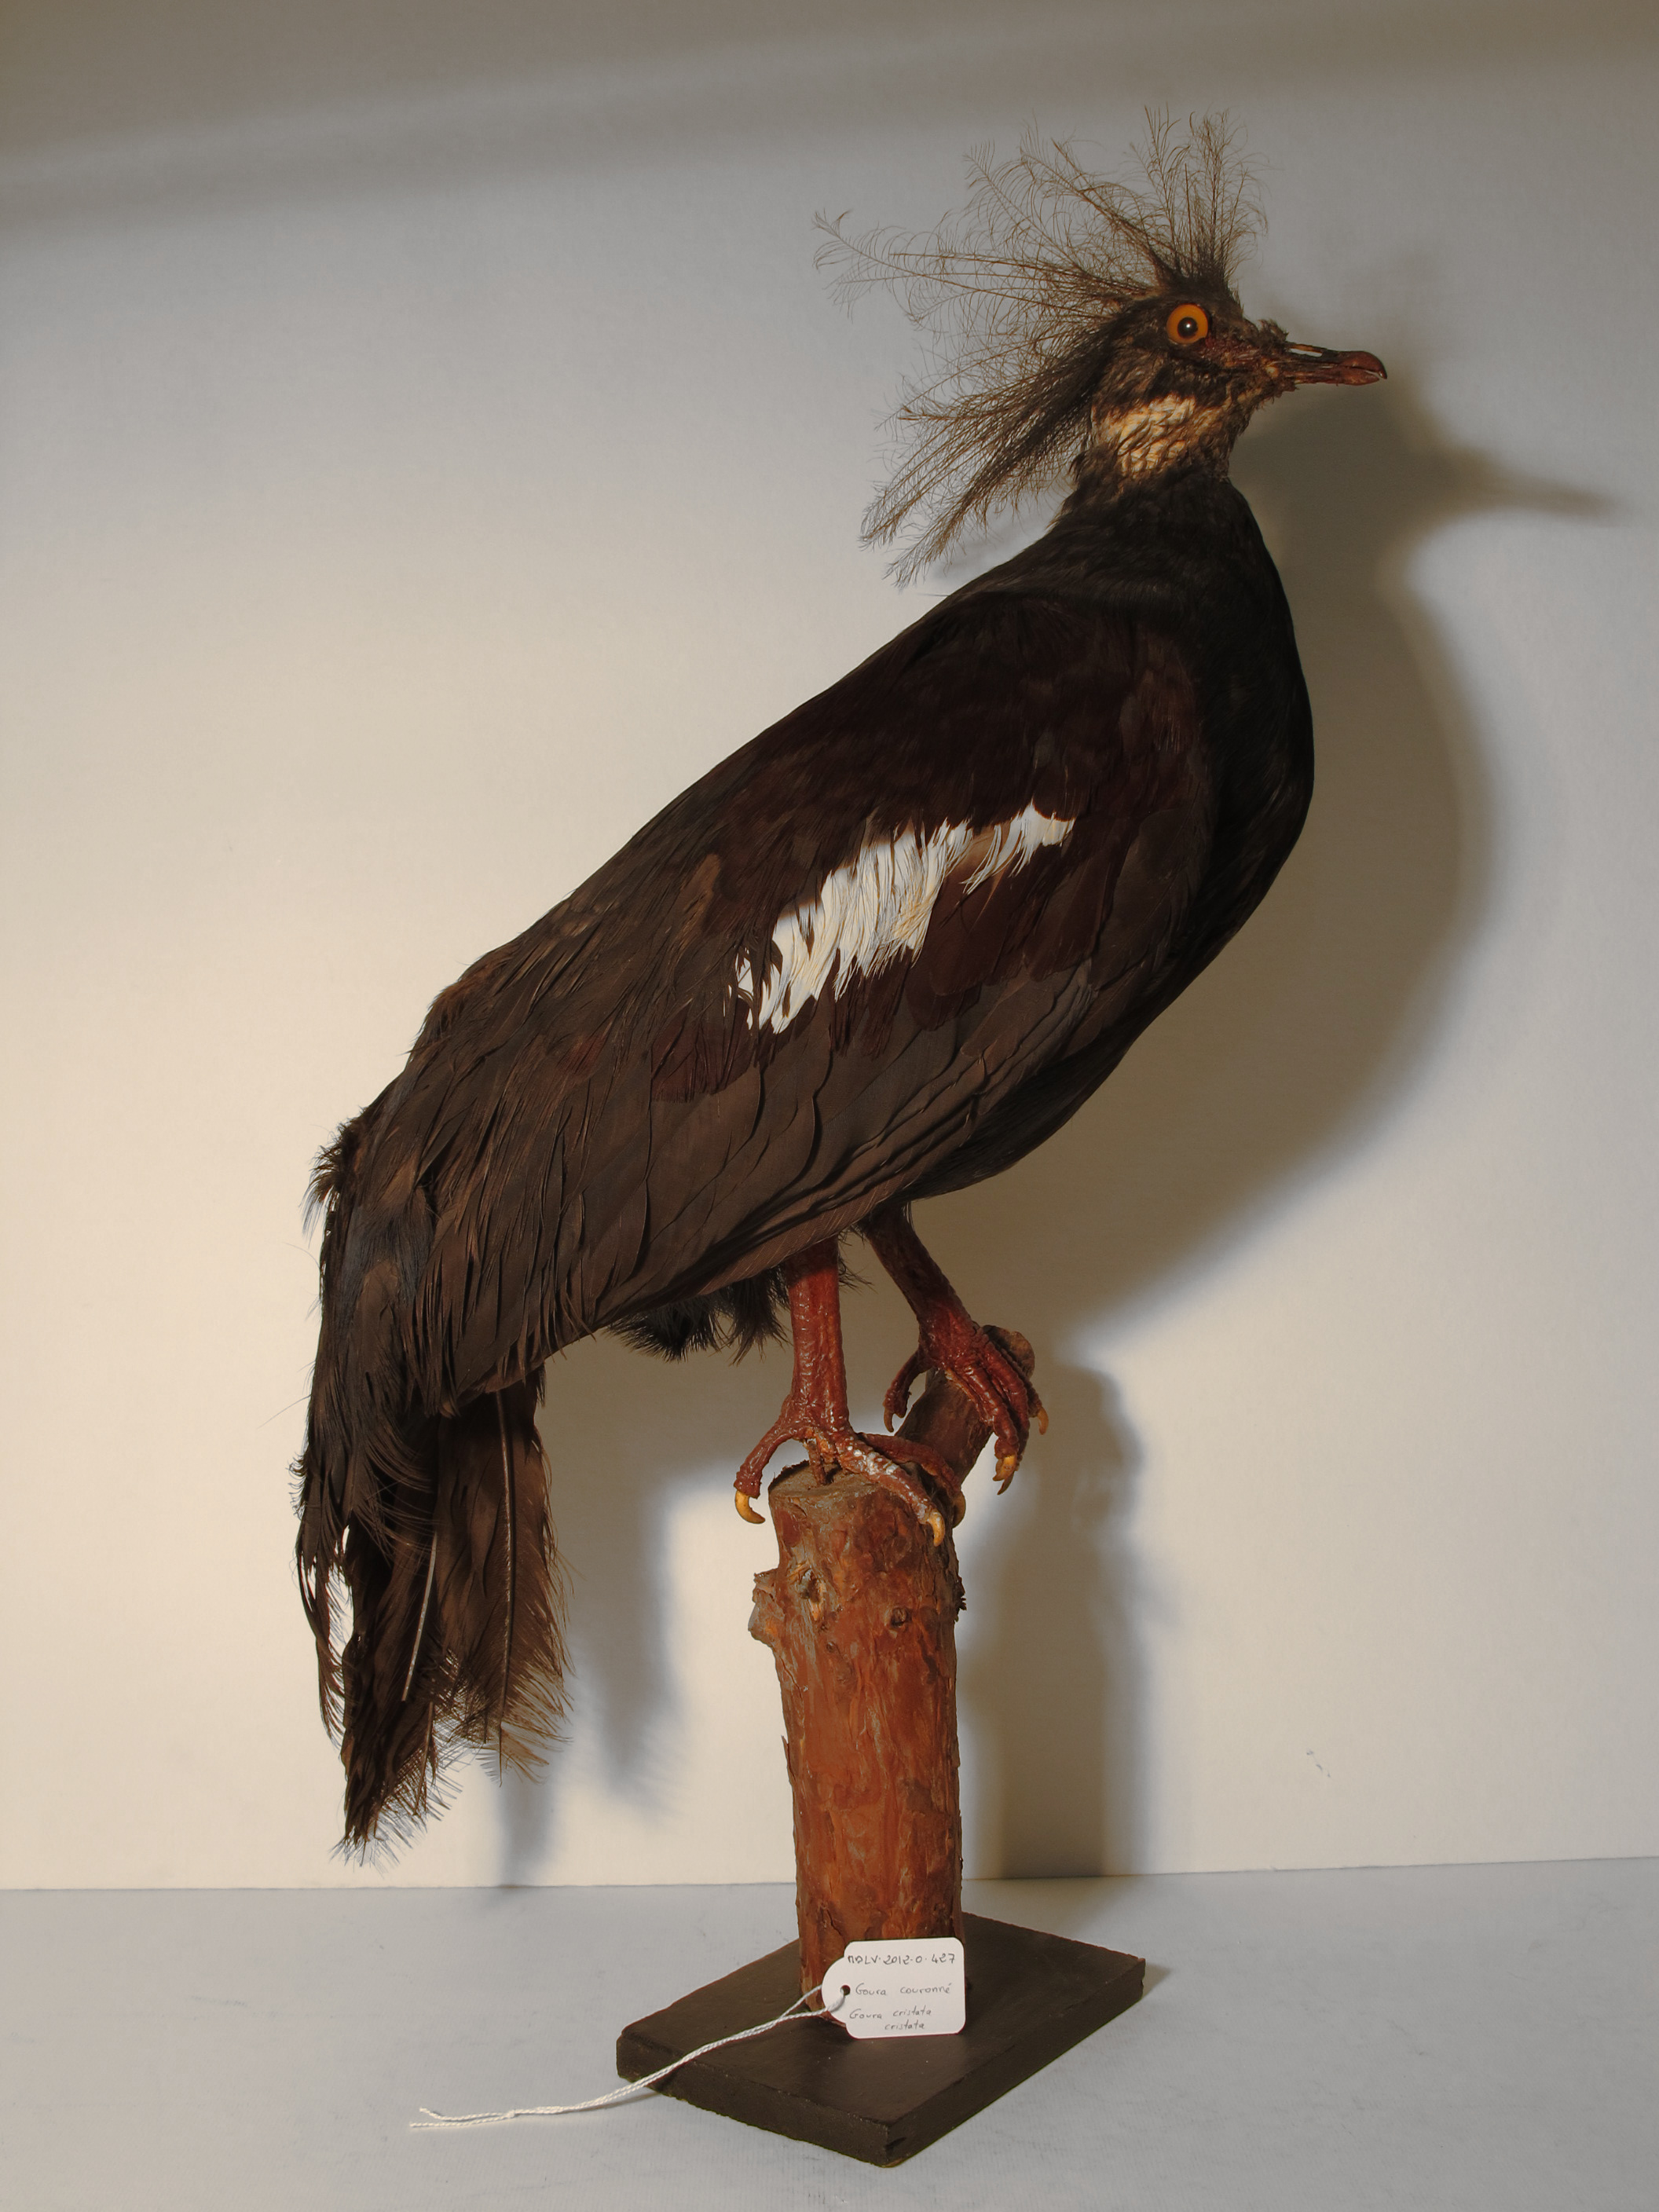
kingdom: Animalia
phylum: Chordata
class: Aves
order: Columbiformes
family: Columbidae
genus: Goura
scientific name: Goura cristata
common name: Western Crowned-pigeon
